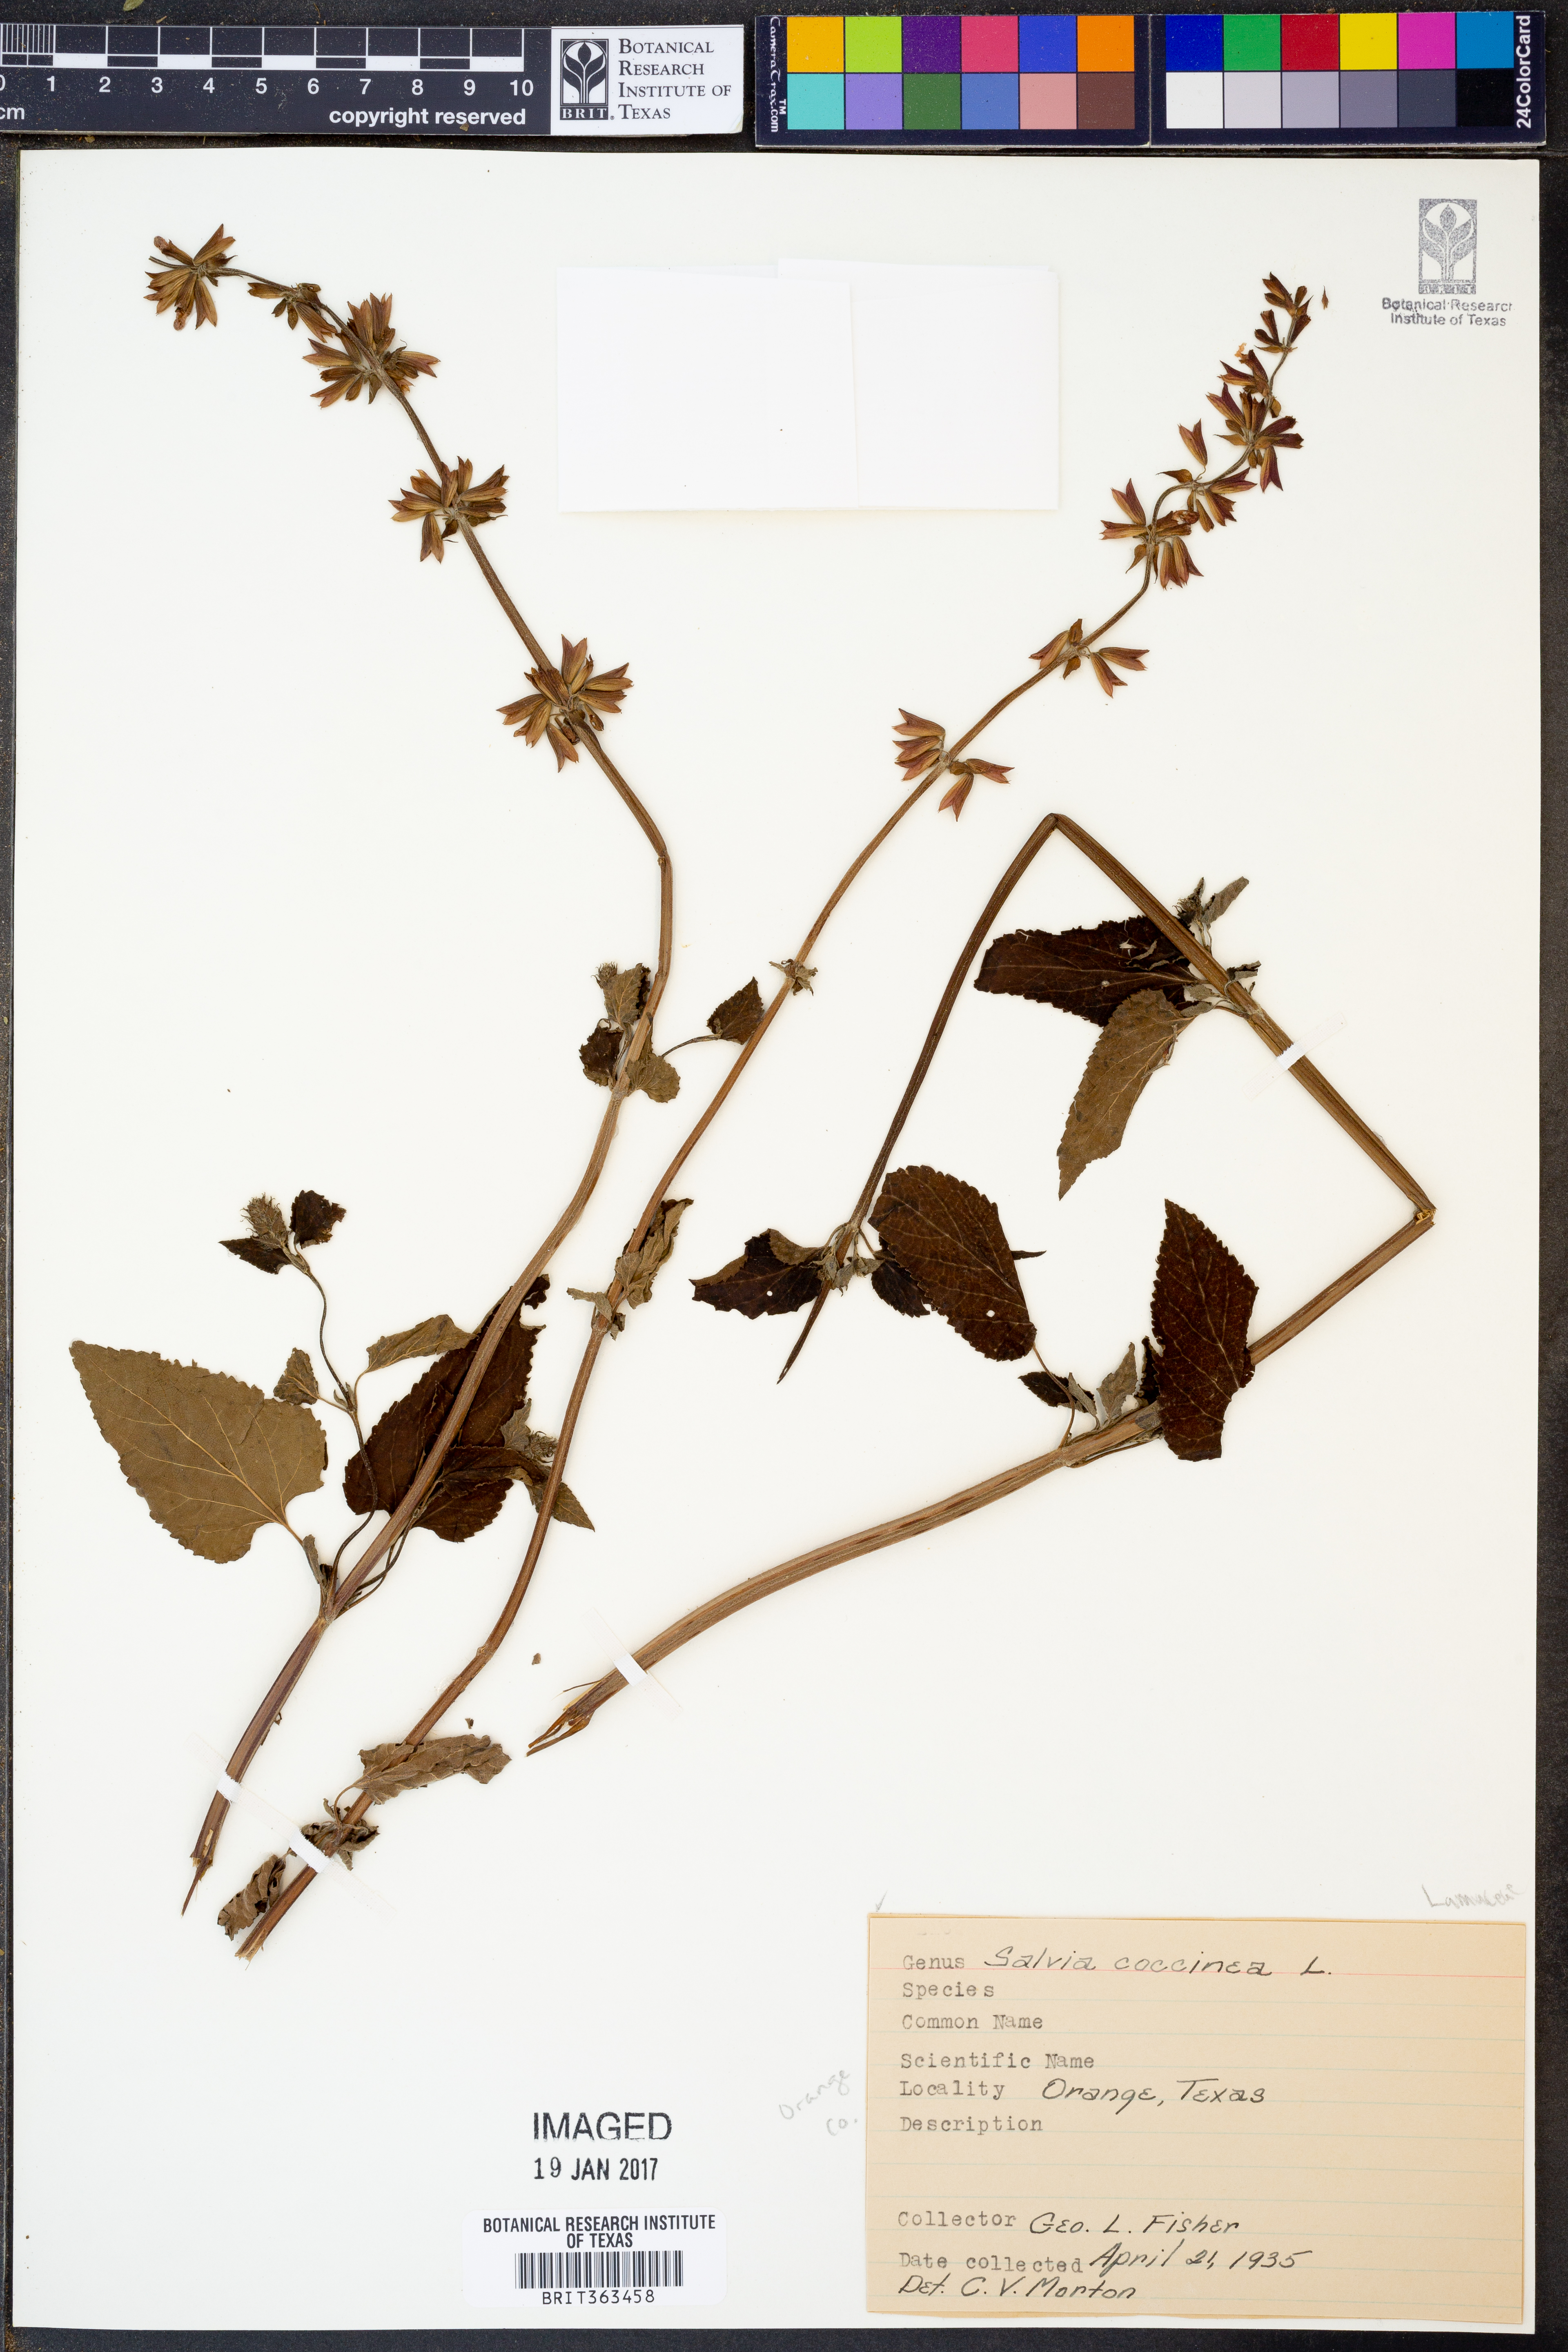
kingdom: Plantae
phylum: Tracheophyta
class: Magnoliopsida
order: Lamiales
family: Lamiaceae
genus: Salvia
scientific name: Salvia coccinea
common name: Blood sage
